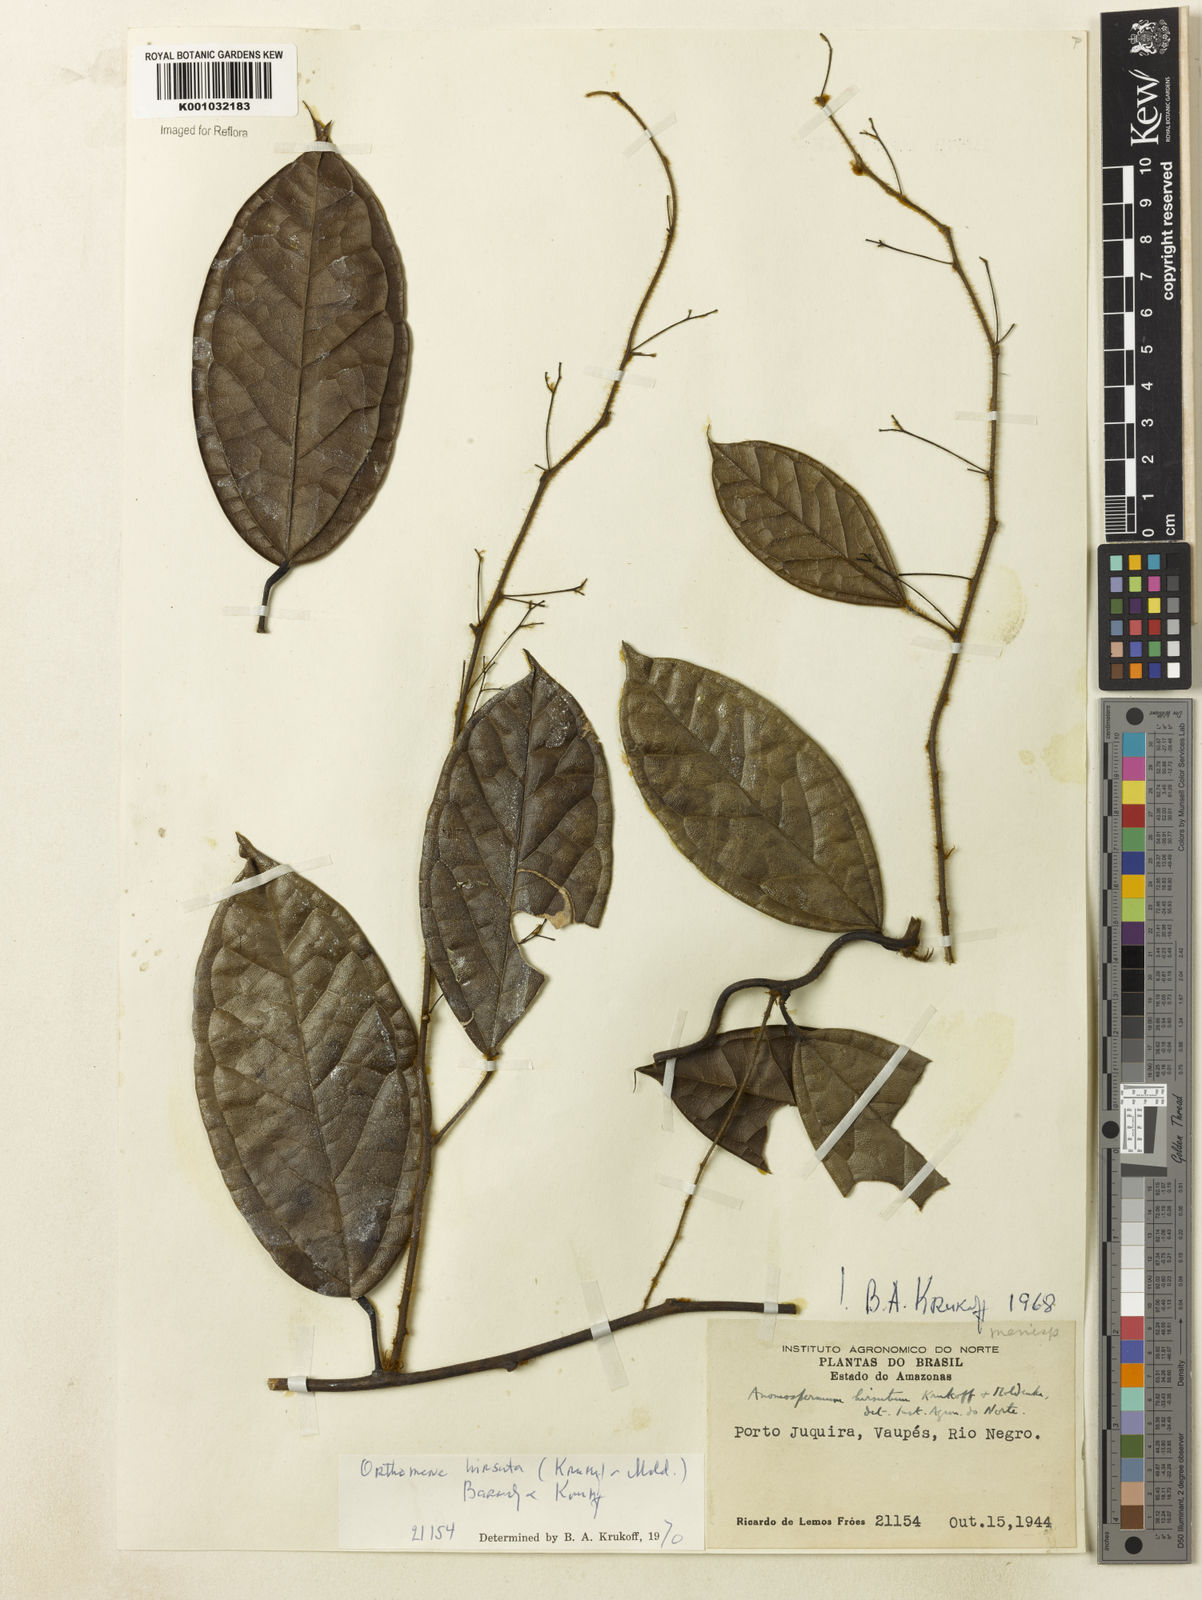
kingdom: Plantae
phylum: Tracheophyta
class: Magnoliopsida
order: Ranunculales
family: Menispermaceae
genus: Orthomene
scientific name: Orthomene hirsuta
